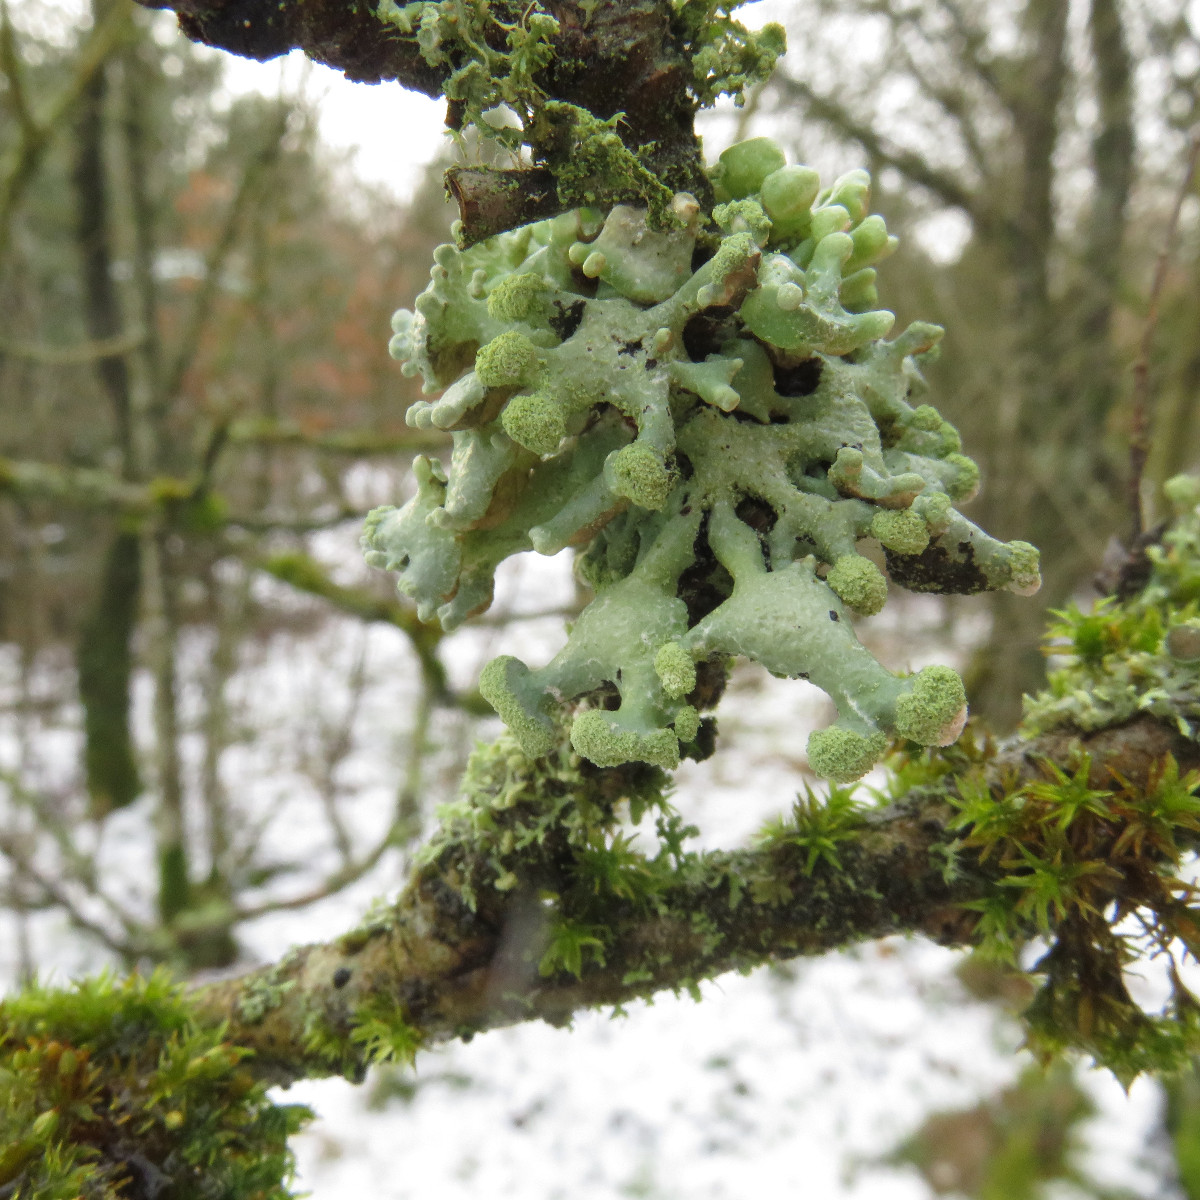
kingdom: Fungi
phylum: Ascomycota
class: Lecanoromycetes
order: Lecanorales
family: Parmeliaceae
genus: Hypogymnia
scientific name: Hypogymnia tubulosa
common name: finger-kvistlav
